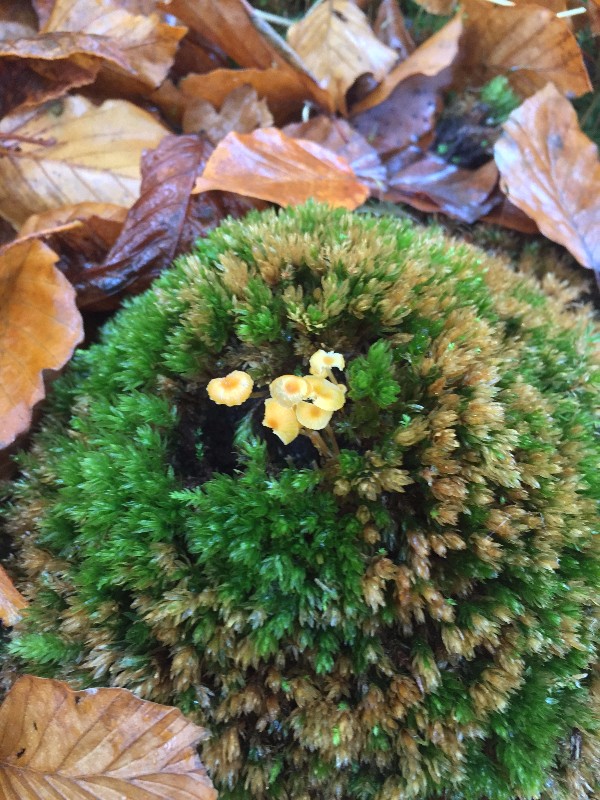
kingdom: Fungi
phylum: Basidiomycota
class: Agaricomycetes
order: Hymenochaetales
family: Rickenellaceae
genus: Rickenella
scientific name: Rickenella fibula
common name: orange mosnavlehat
